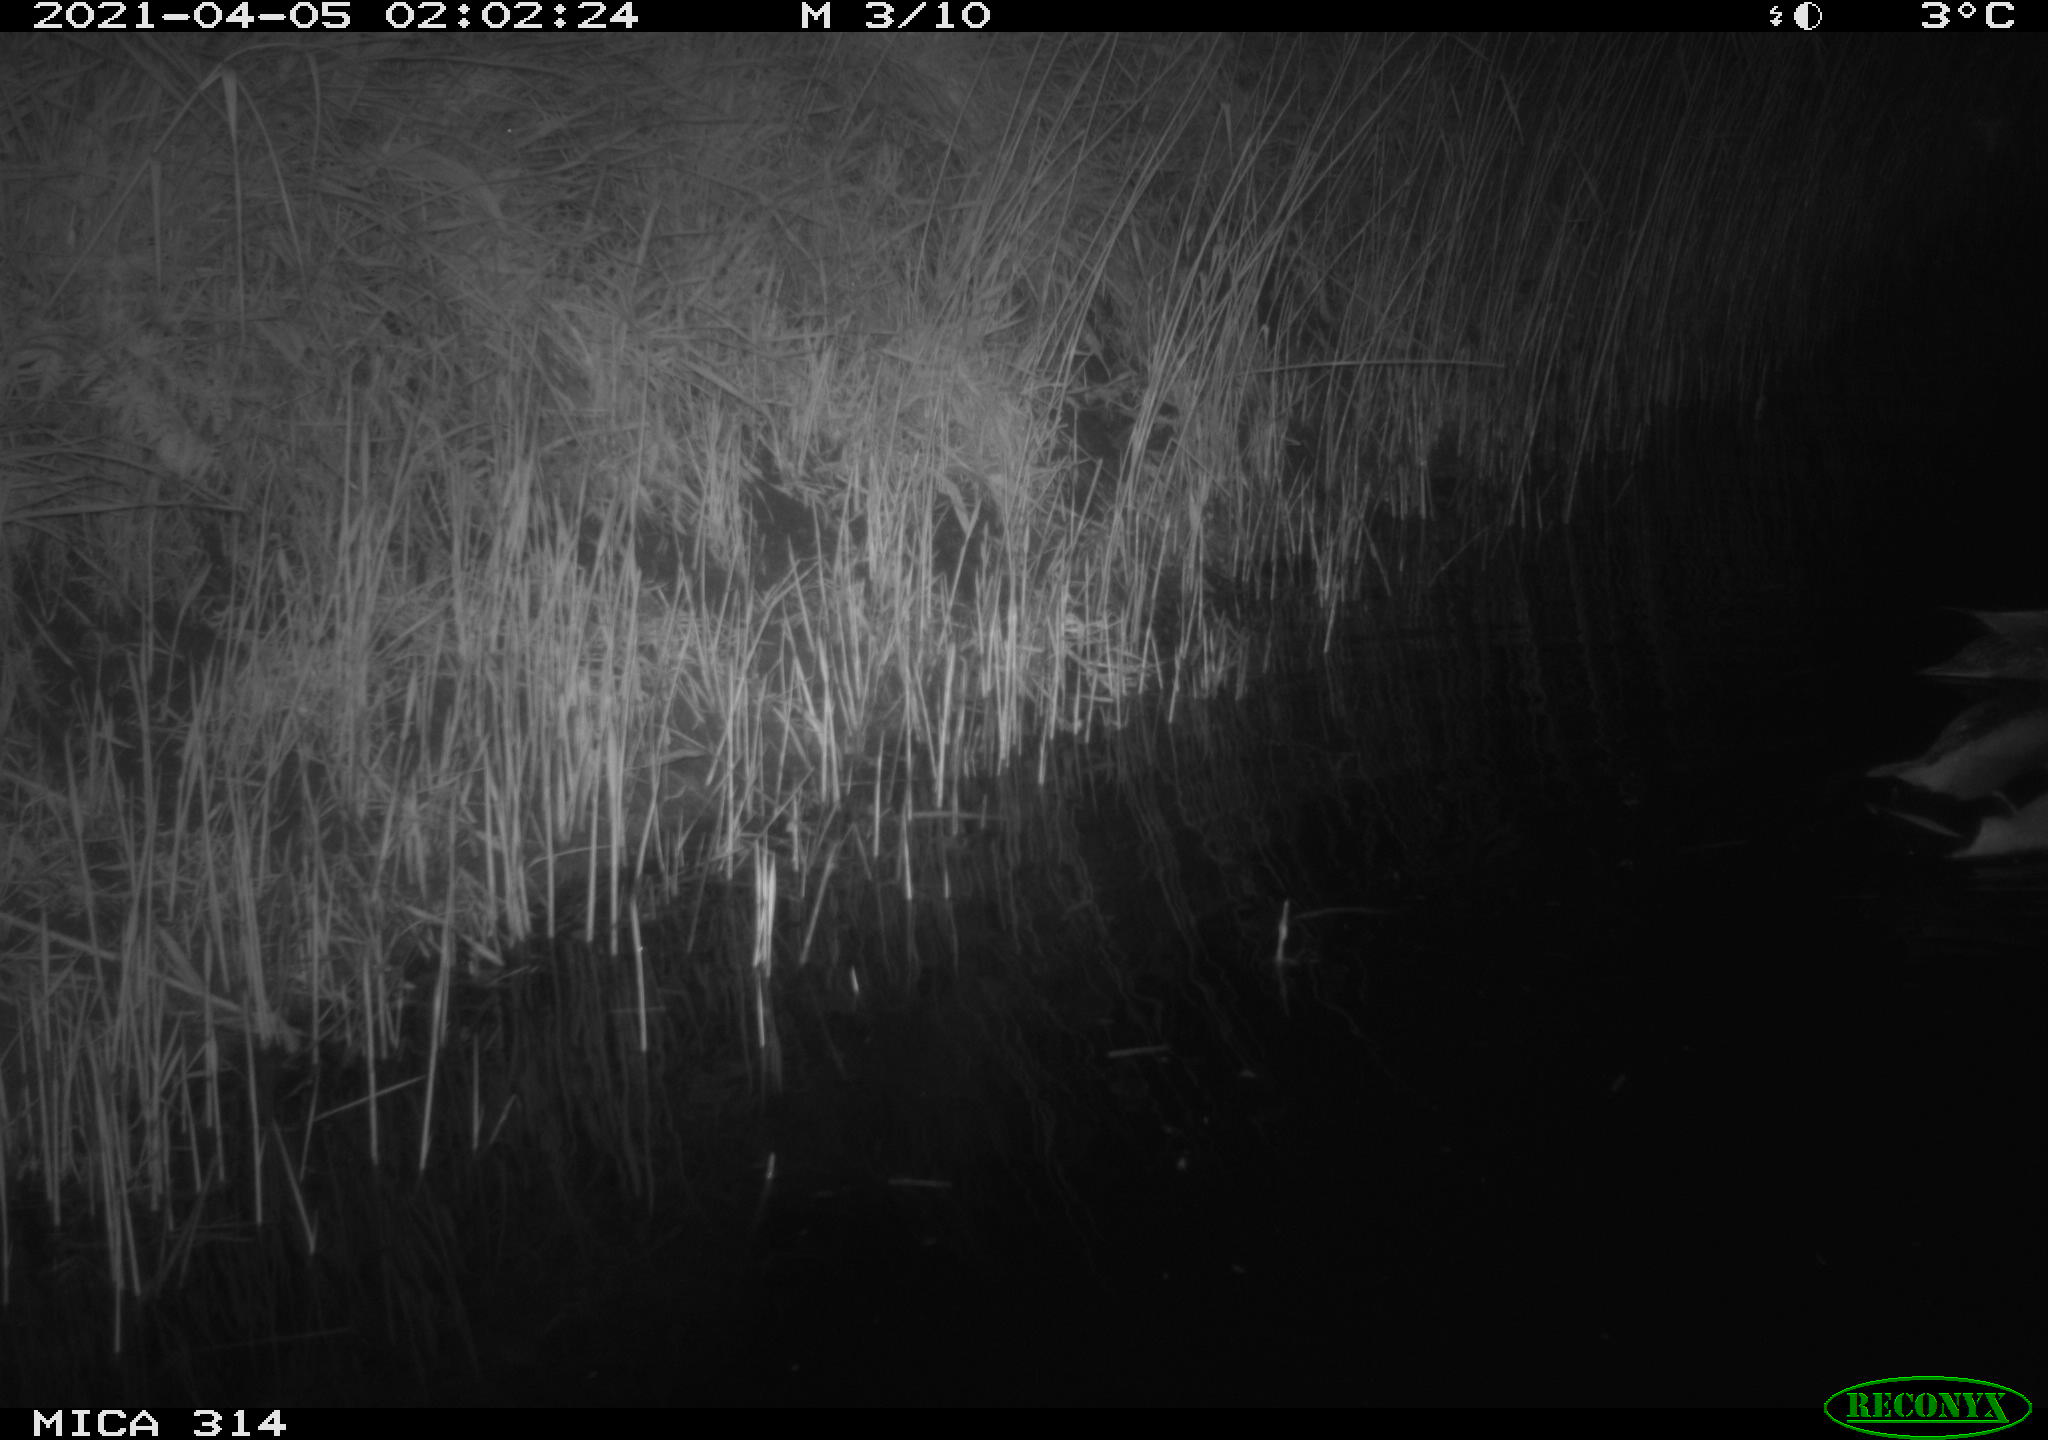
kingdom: Animalia
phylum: Chordata
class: Aves
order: Anseriformes
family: Anatidae
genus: Anas
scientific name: Anas platyrhynchos
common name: Mallard
